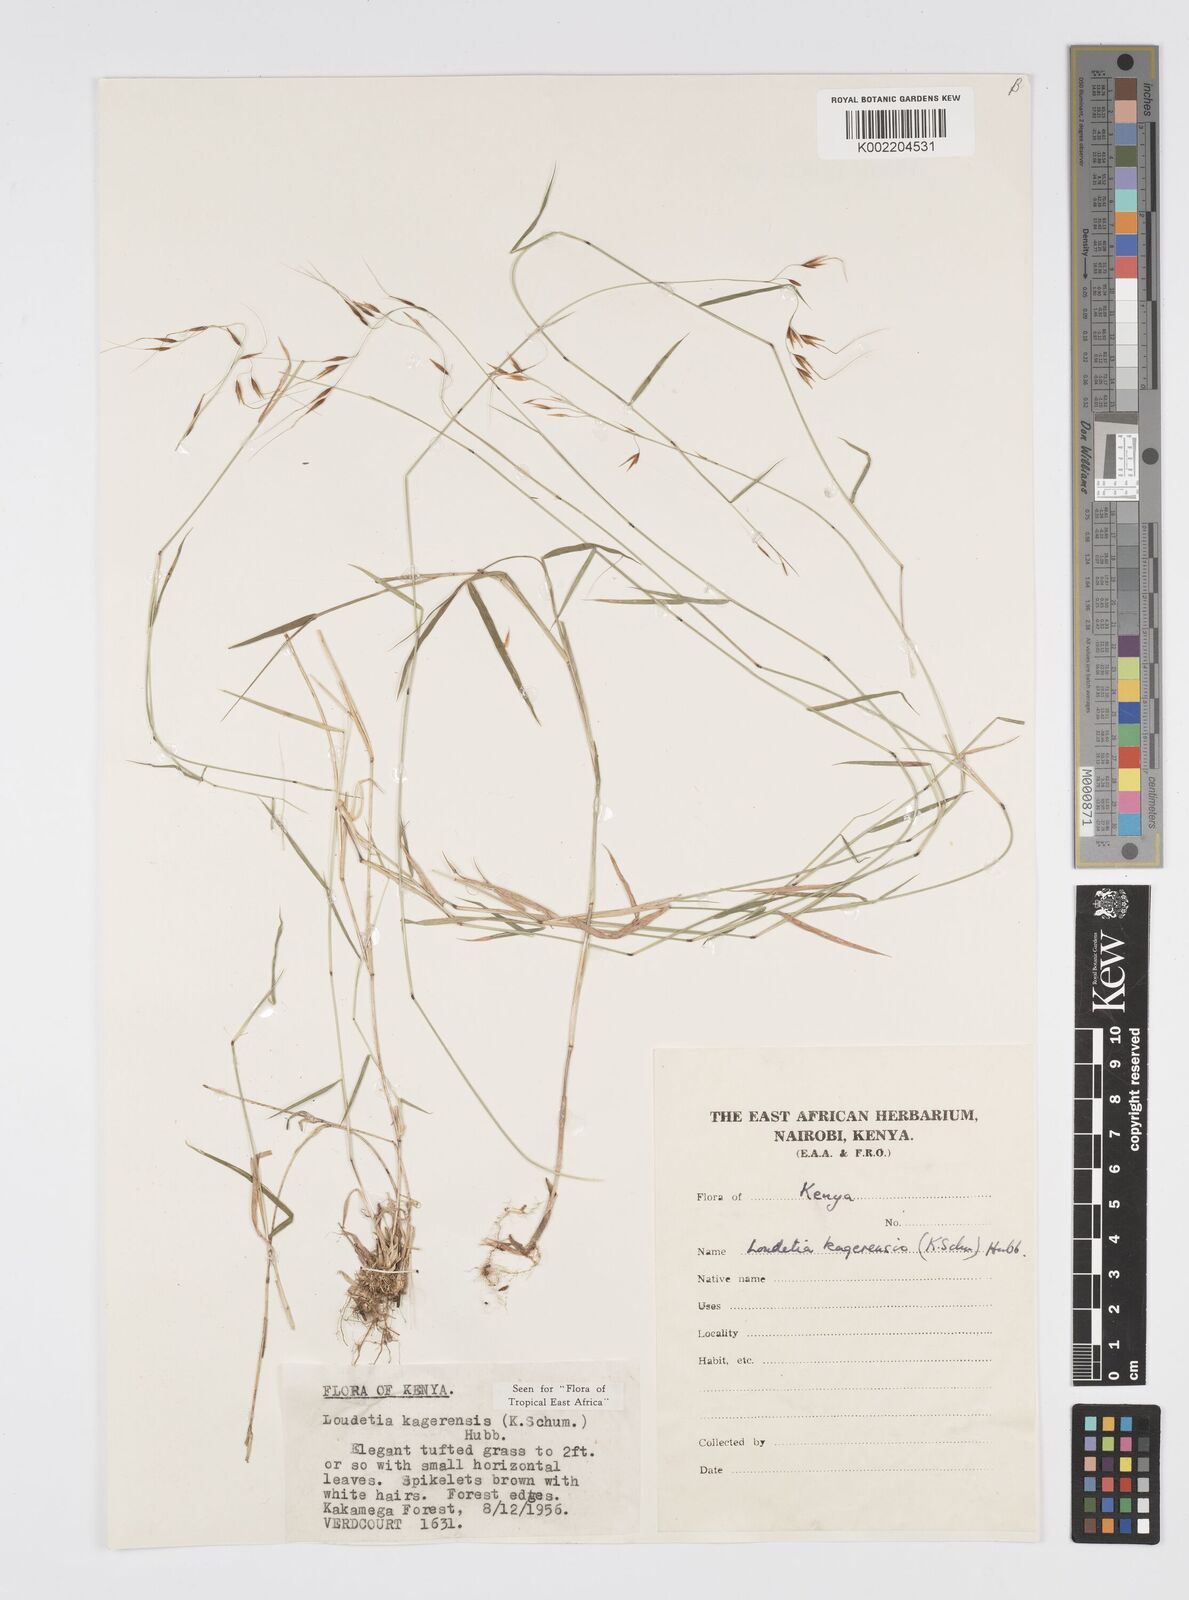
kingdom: Plantae
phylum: Tracheophyta
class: Liliopsida
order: Poales
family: Poaceae
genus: Loudetia
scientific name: Loudetia kagerensis
